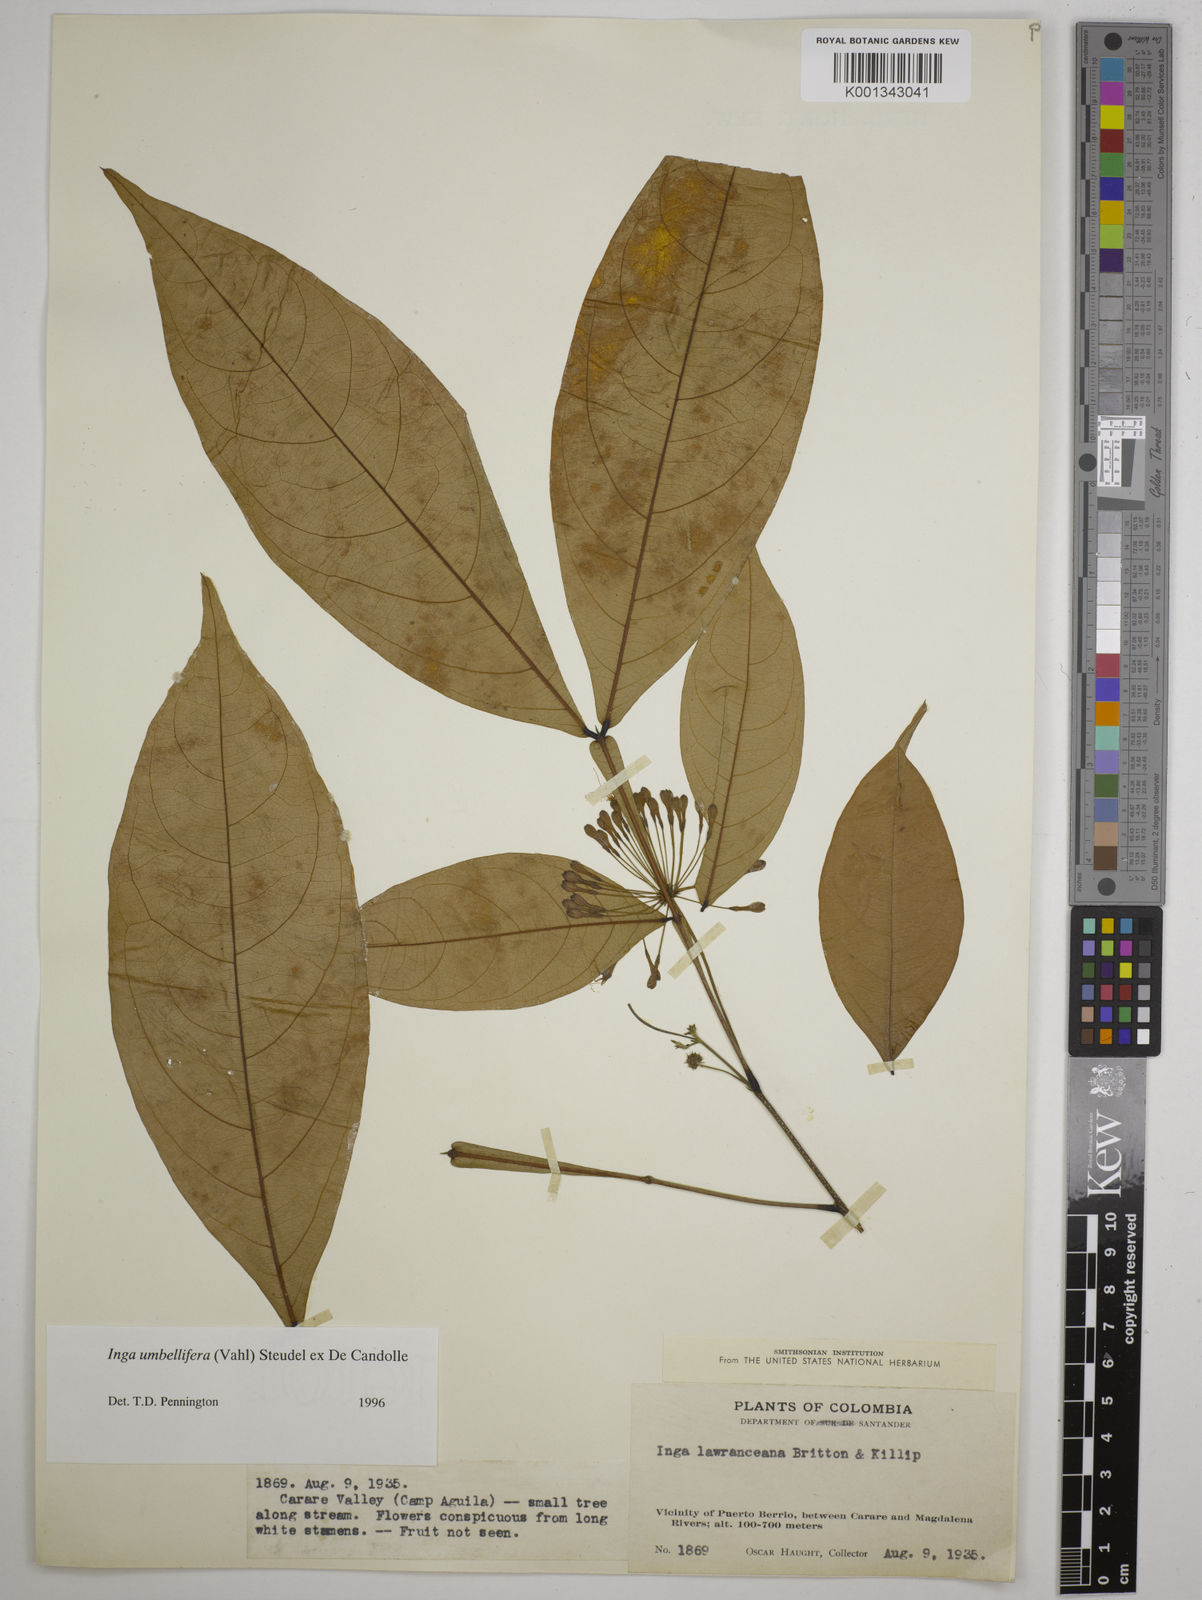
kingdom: Plantae
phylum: Tracheophyta
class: Magnoliopsida
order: Fabales
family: Fabaceae
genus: Inga
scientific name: Inga umbellifera
